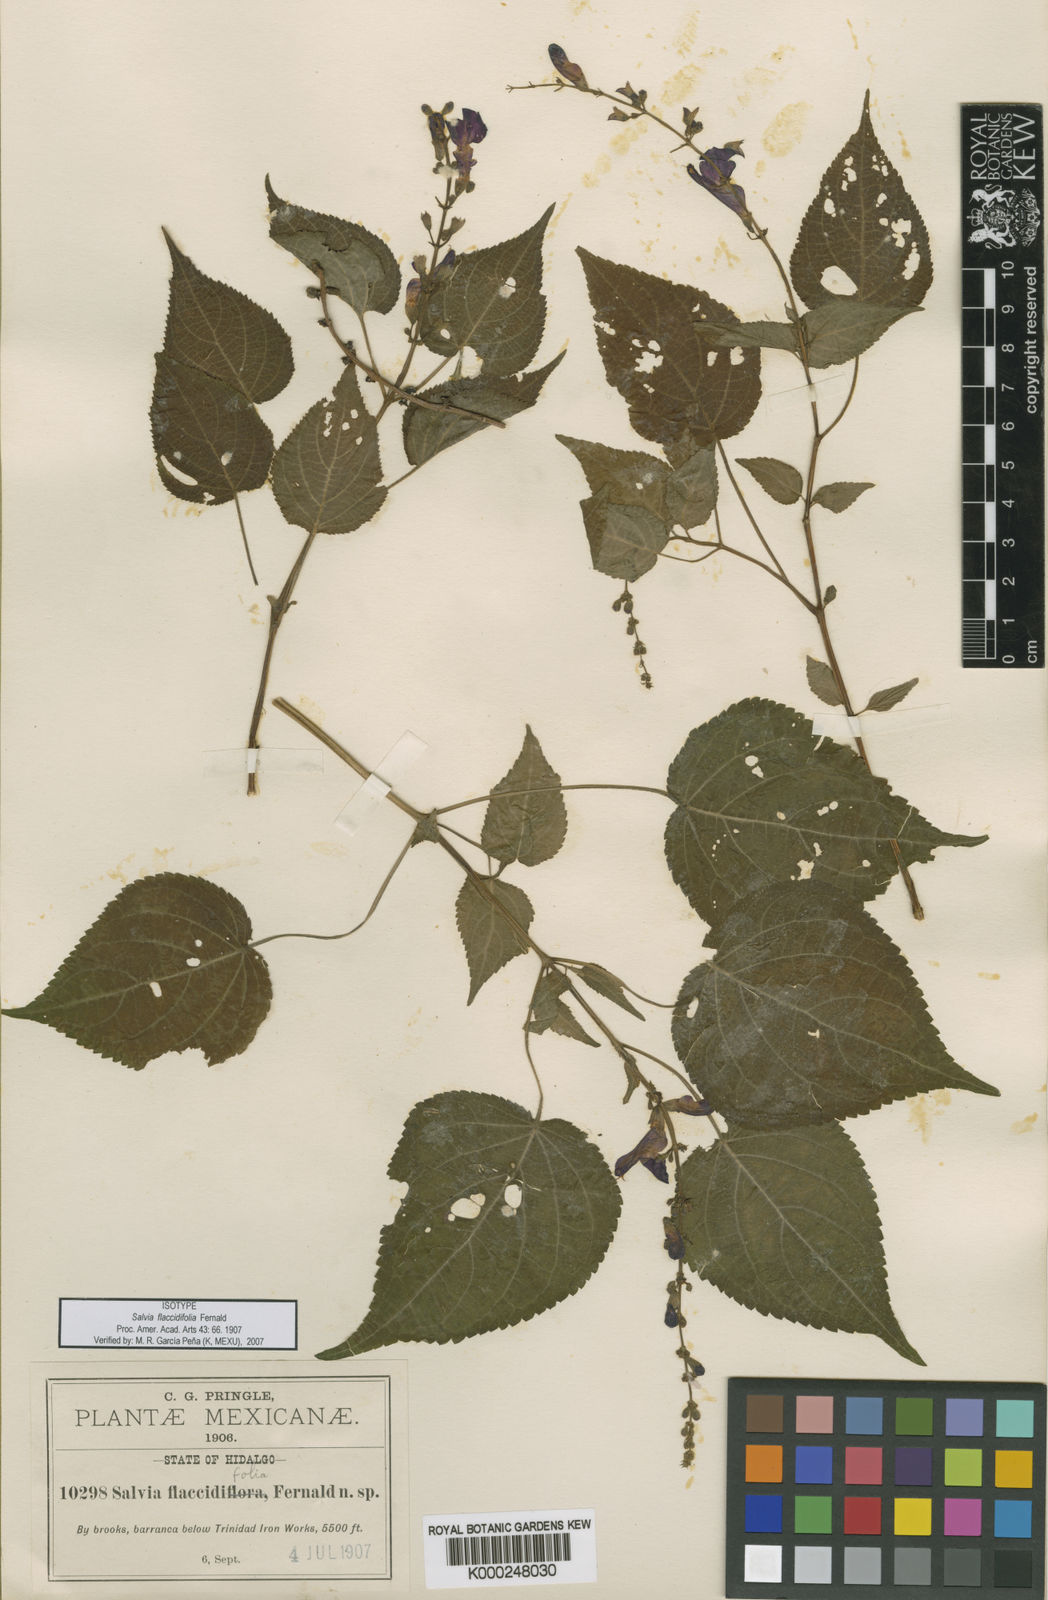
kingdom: Plantae
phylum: Tracheophyta
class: Magnoliopsida
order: Lamiales
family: Lamiaceae
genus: Salvia
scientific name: Salvia flaccidifolia
